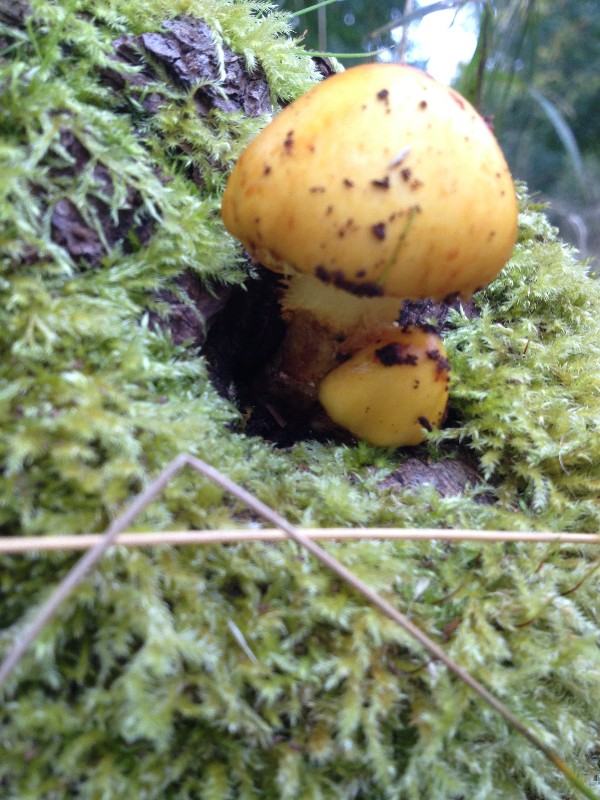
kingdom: Fungi
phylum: Basidiomycota
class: Agaricomycetes
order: Agaricales
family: Strophariaceae
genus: Pholiota
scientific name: Pholiota adiposa
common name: højtsiddende skælhat
